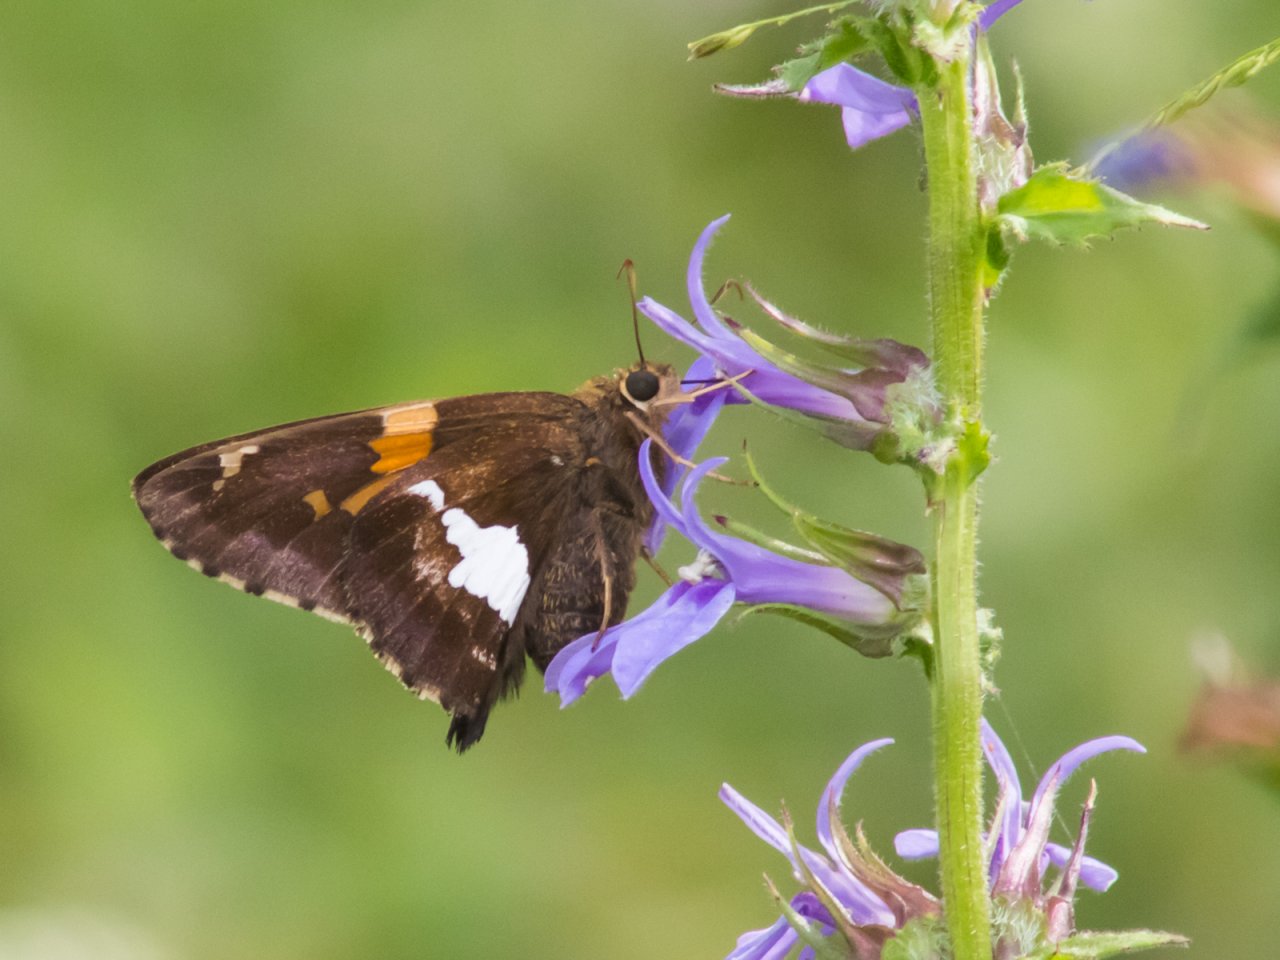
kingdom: Animalia
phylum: Arthropoda
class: Insecta
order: Lepidoptera
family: Hesperiidae
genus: Epargyreus
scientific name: Epargyreus clarus
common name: Silver-spotted Skipper
